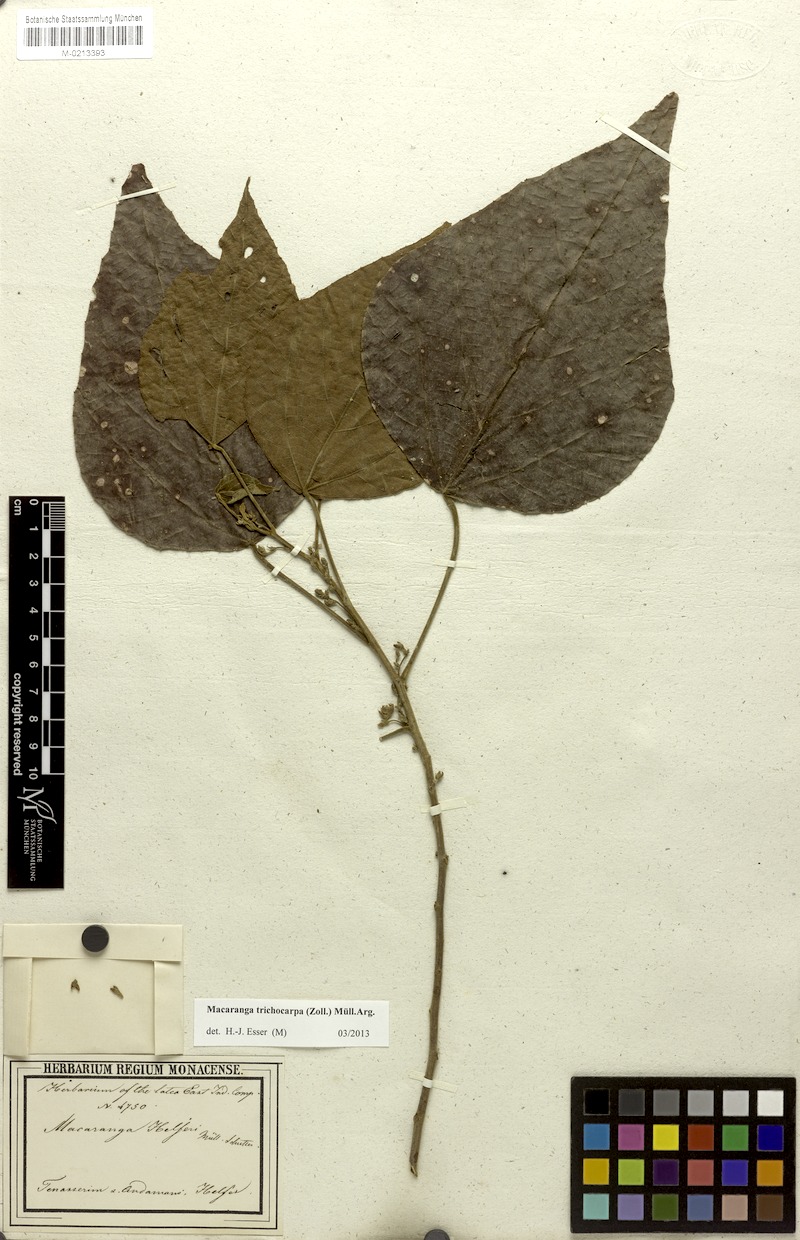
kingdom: Plantae
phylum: Tracheophyta
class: Magnoliopsida
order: Malpighiales
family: Euphorbiaceae
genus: Macaranga
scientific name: Macaranga trichocarpa
